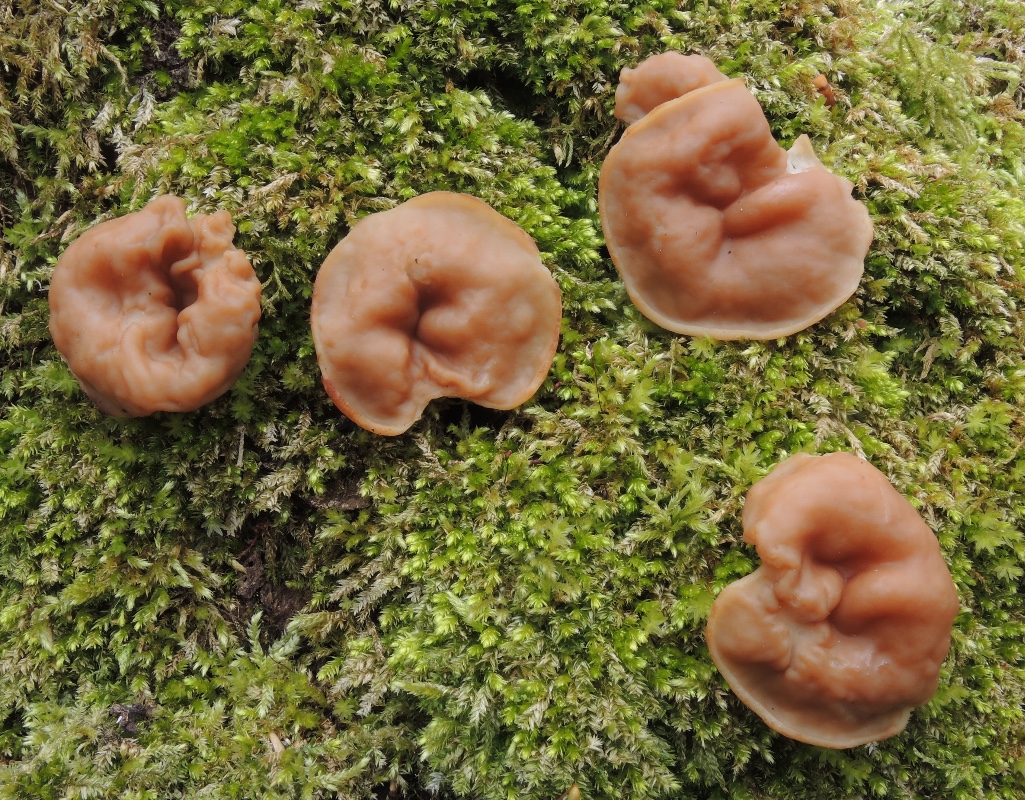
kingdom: Fungi
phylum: Ascomycota
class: Pezizomycetes
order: Pezizales
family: Discinaceae
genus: Gyromitra
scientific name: Gyromitra parma
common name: flad stenmorkel
